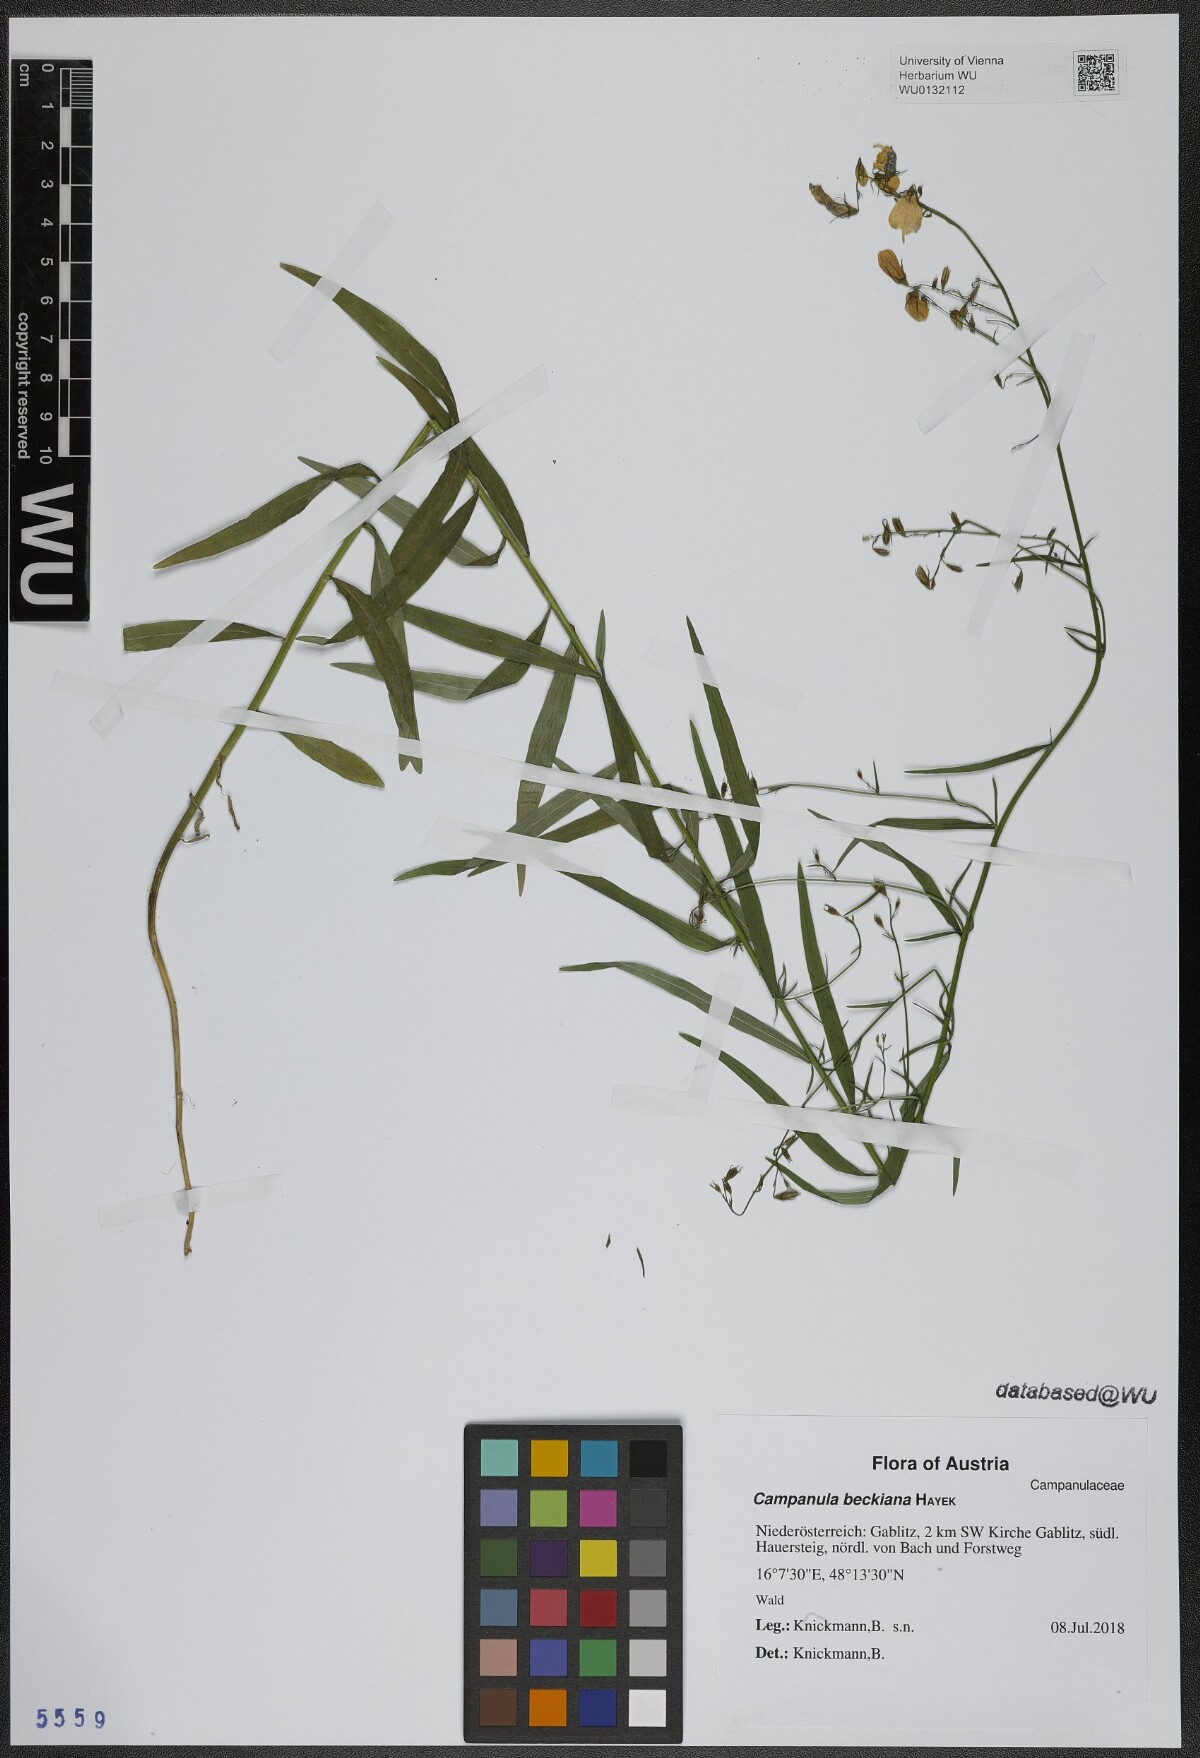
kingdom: Plantae
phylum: Tracheophyta
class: Magnoliopsida
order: Asterales
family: Campanulaceae
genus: Campanula
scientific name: Campanula baumgartenii
